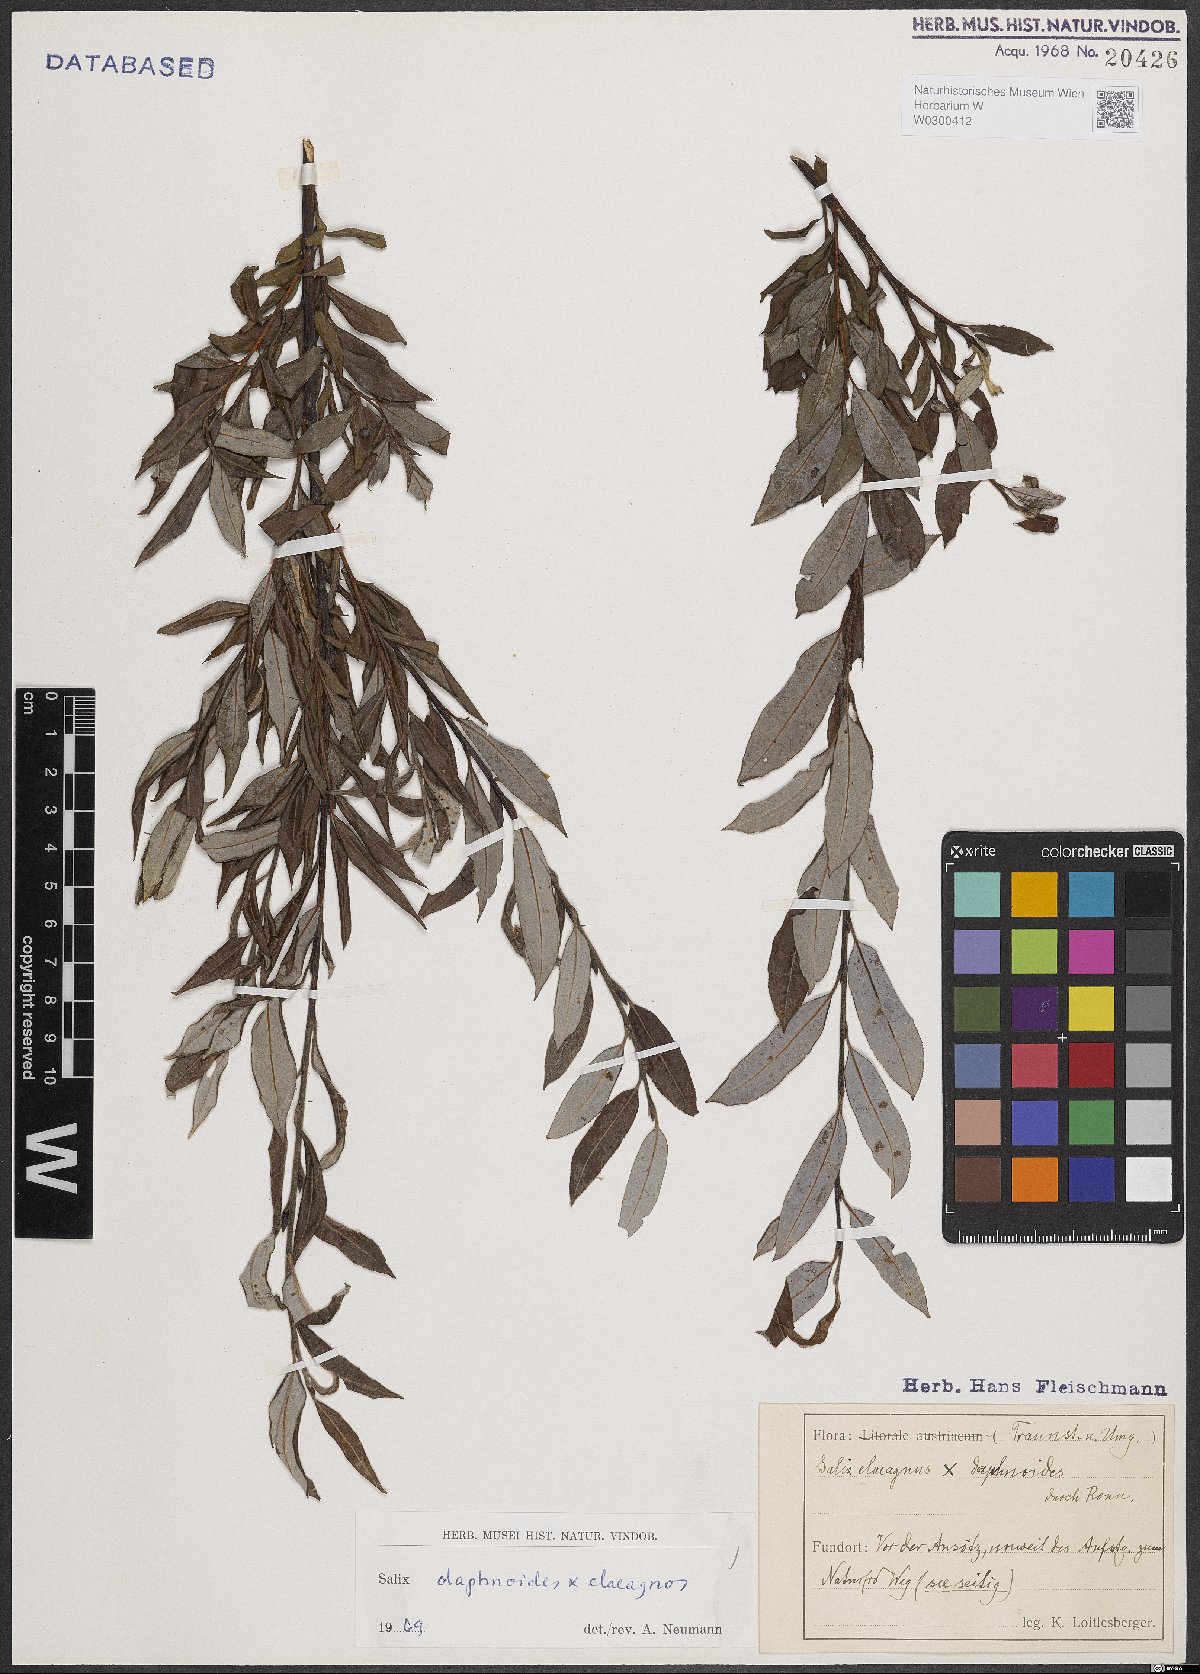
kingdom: Plantae
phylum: Tracheophyta
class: Magnoliopsida
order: Malpighiales
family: Salicaceae
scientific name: Salicaceae
